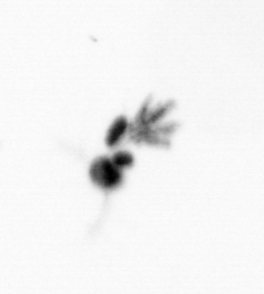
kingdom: Animalia
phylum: Arthropoda
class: Copepoda
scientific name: Copepoda
